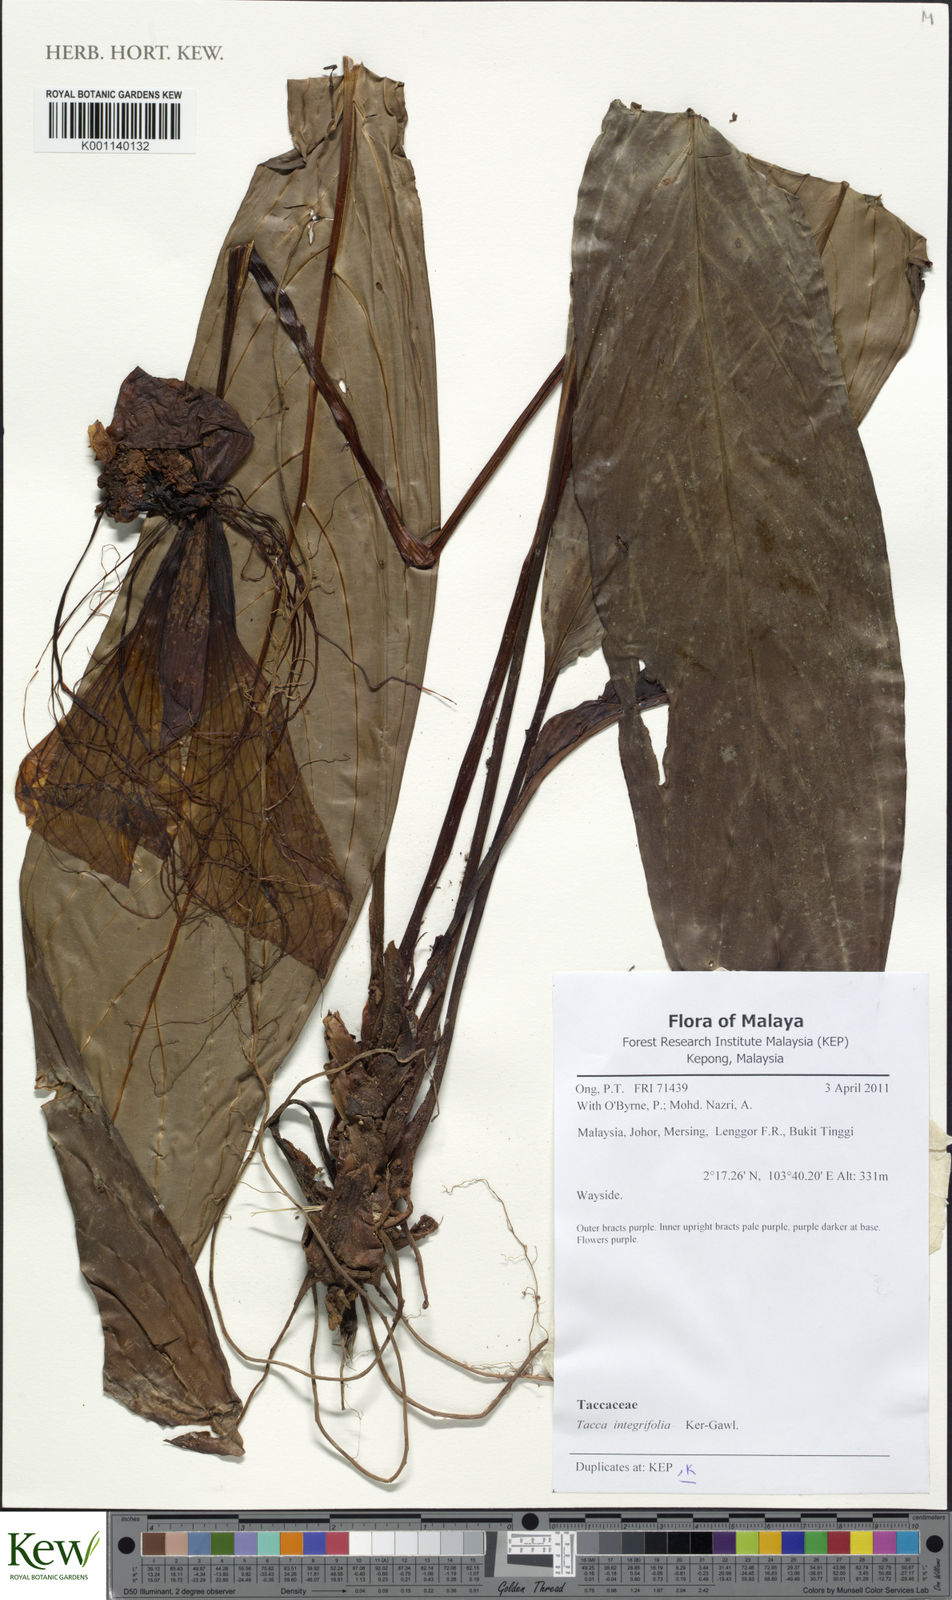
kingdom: Plantae
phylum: Tracheophyta
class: Liliopsida
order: Dioscoreales
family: Dioscoreaceae
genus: Tacca
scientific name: Tacca integrifolia
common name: Batplant
